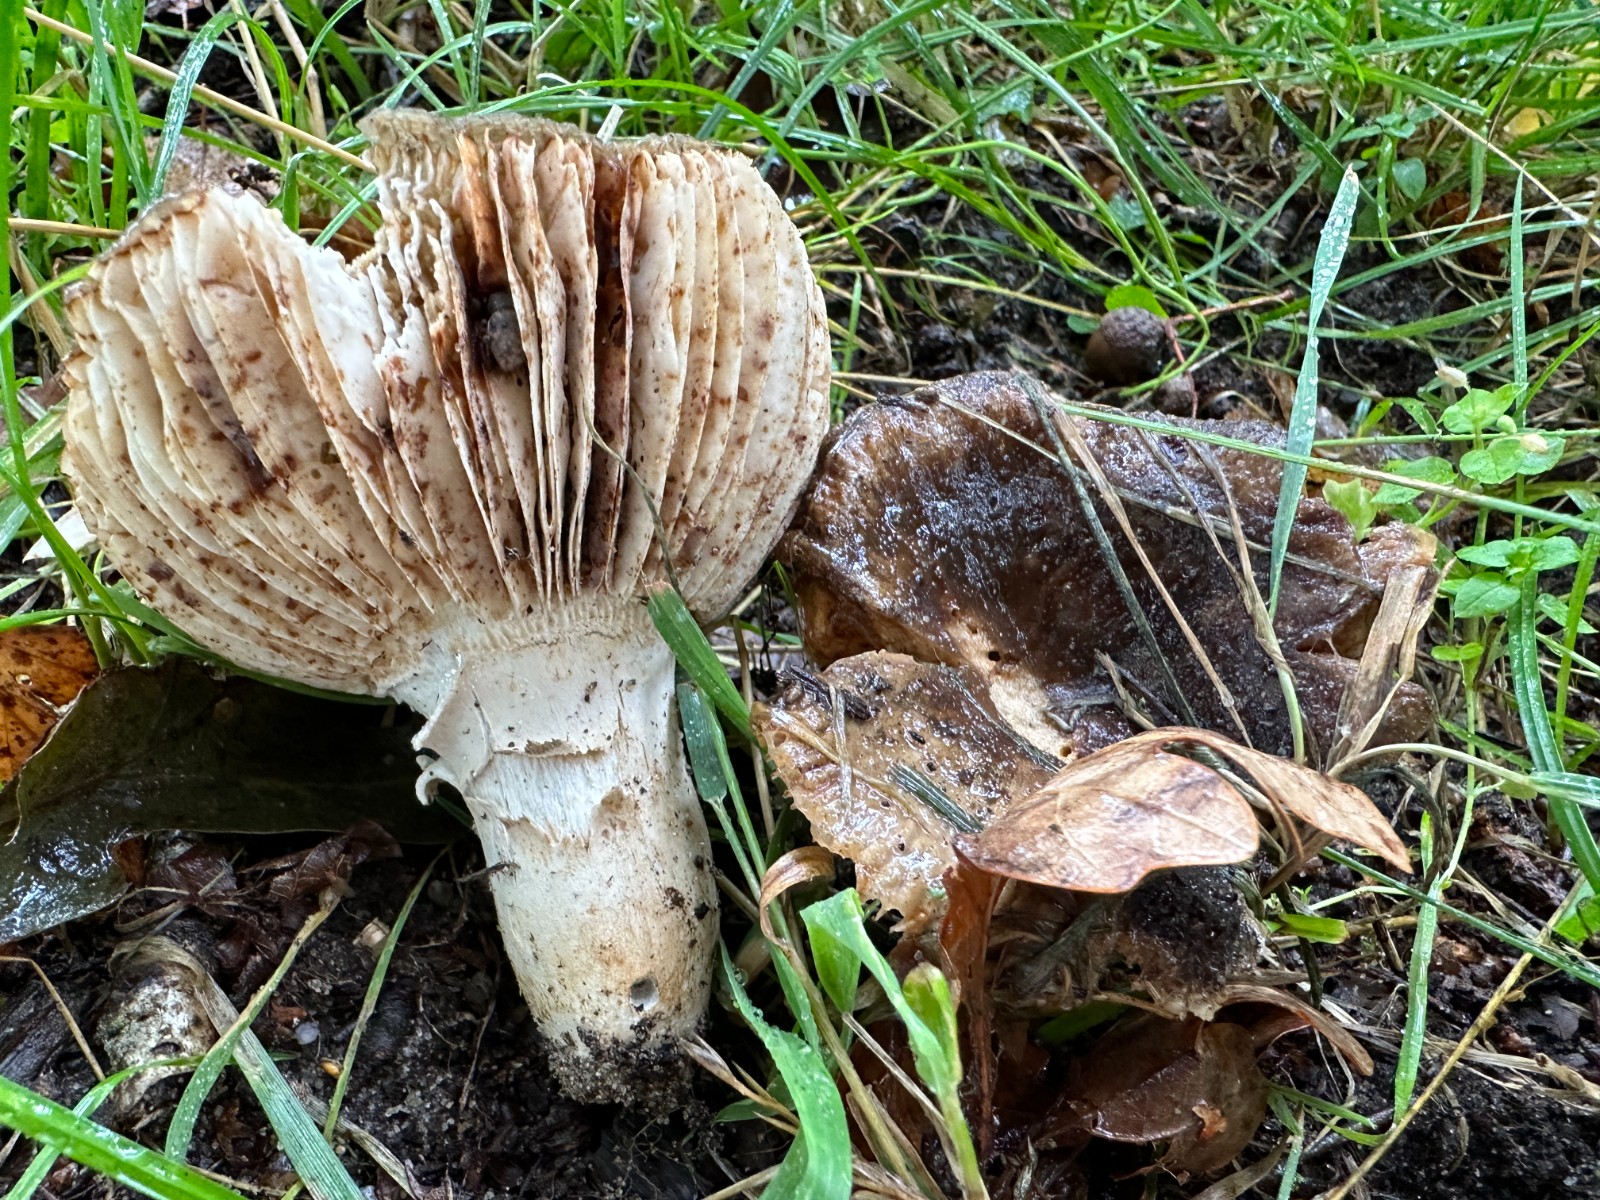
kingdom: Fungi
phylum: Basidiomycota
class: Agaricomycetes
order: Russulales
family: Russulaceae
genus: Russula
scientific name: Russula amoenolens
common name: skarp kam-skørhat
